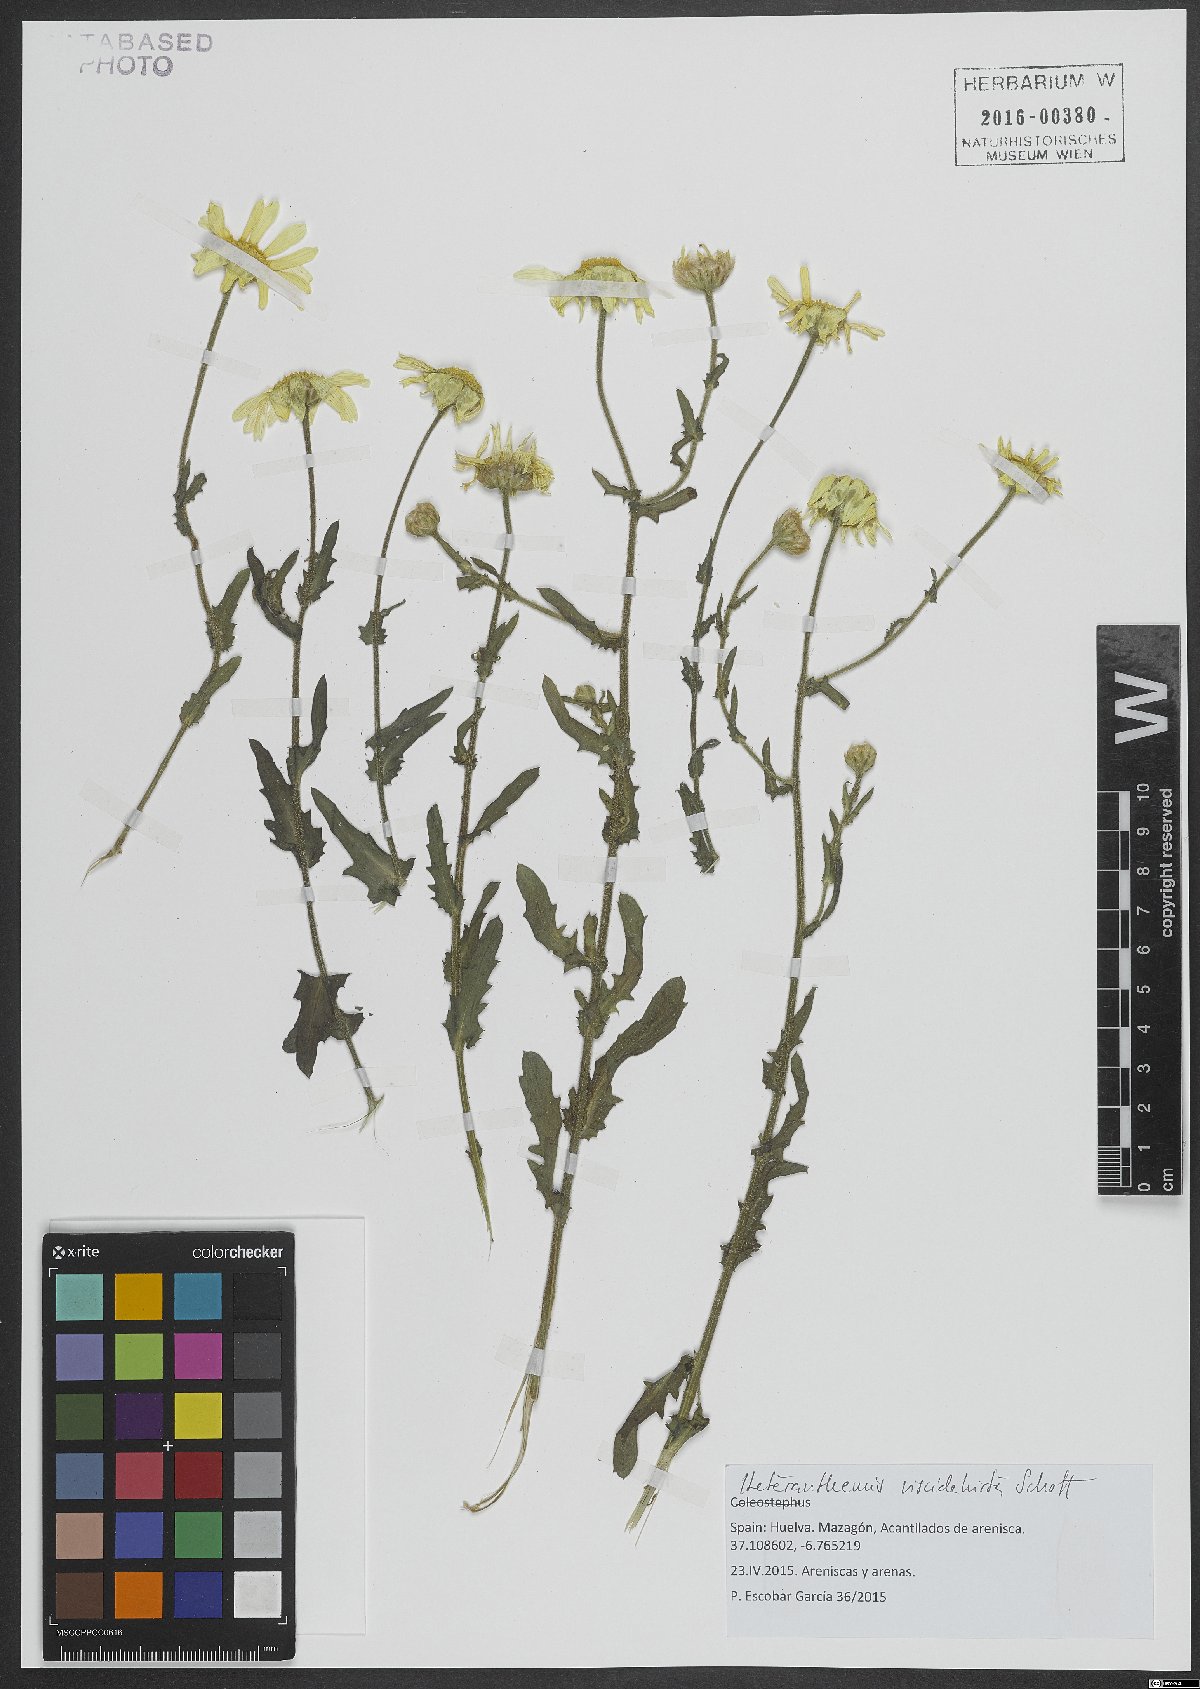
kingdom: Plantae
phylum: Tracheophyta
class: Magnoliopsida
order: Asterales
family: Asteraceae
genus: Heteranthemis
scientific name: Heteranthemis viscidehirta
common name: Sticky oxeye
